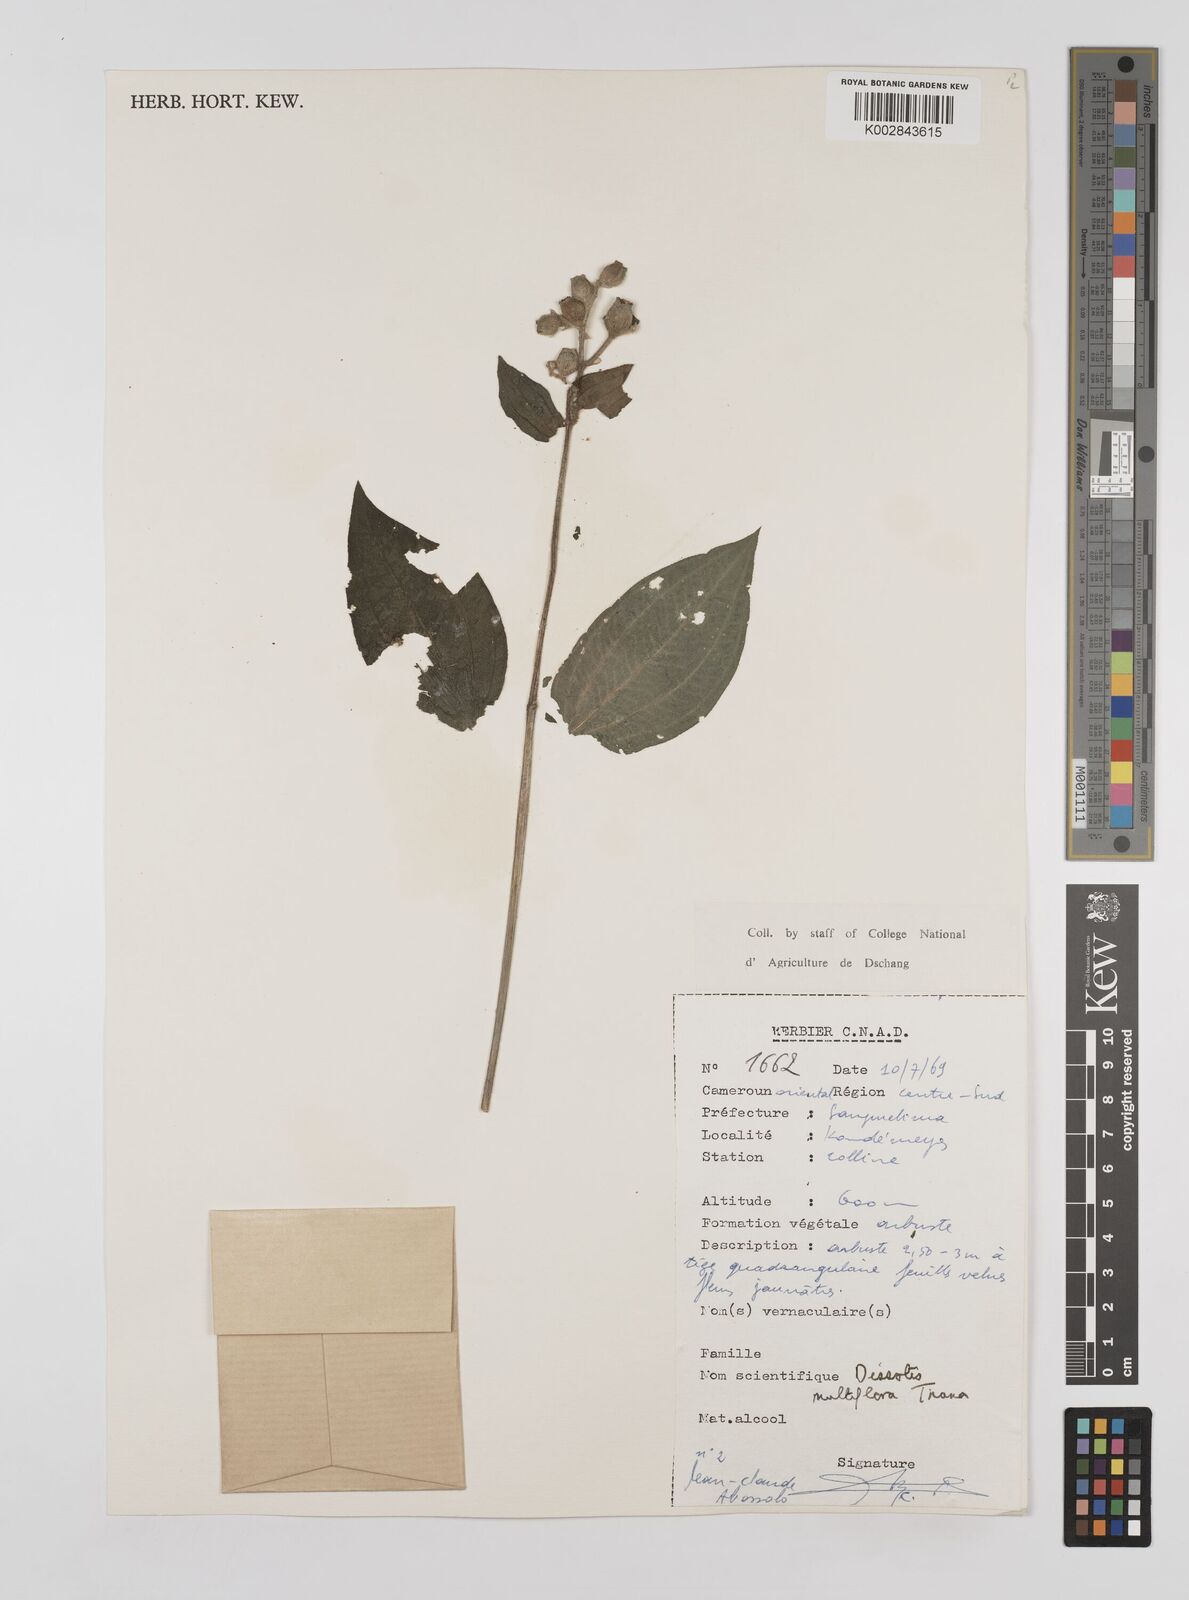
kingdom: Plantae
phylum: Tracheophyta
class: Magnoliopsida
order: Myrtales
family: Melastomataceae
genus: Dupineta
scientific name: Dupineta multiflora
